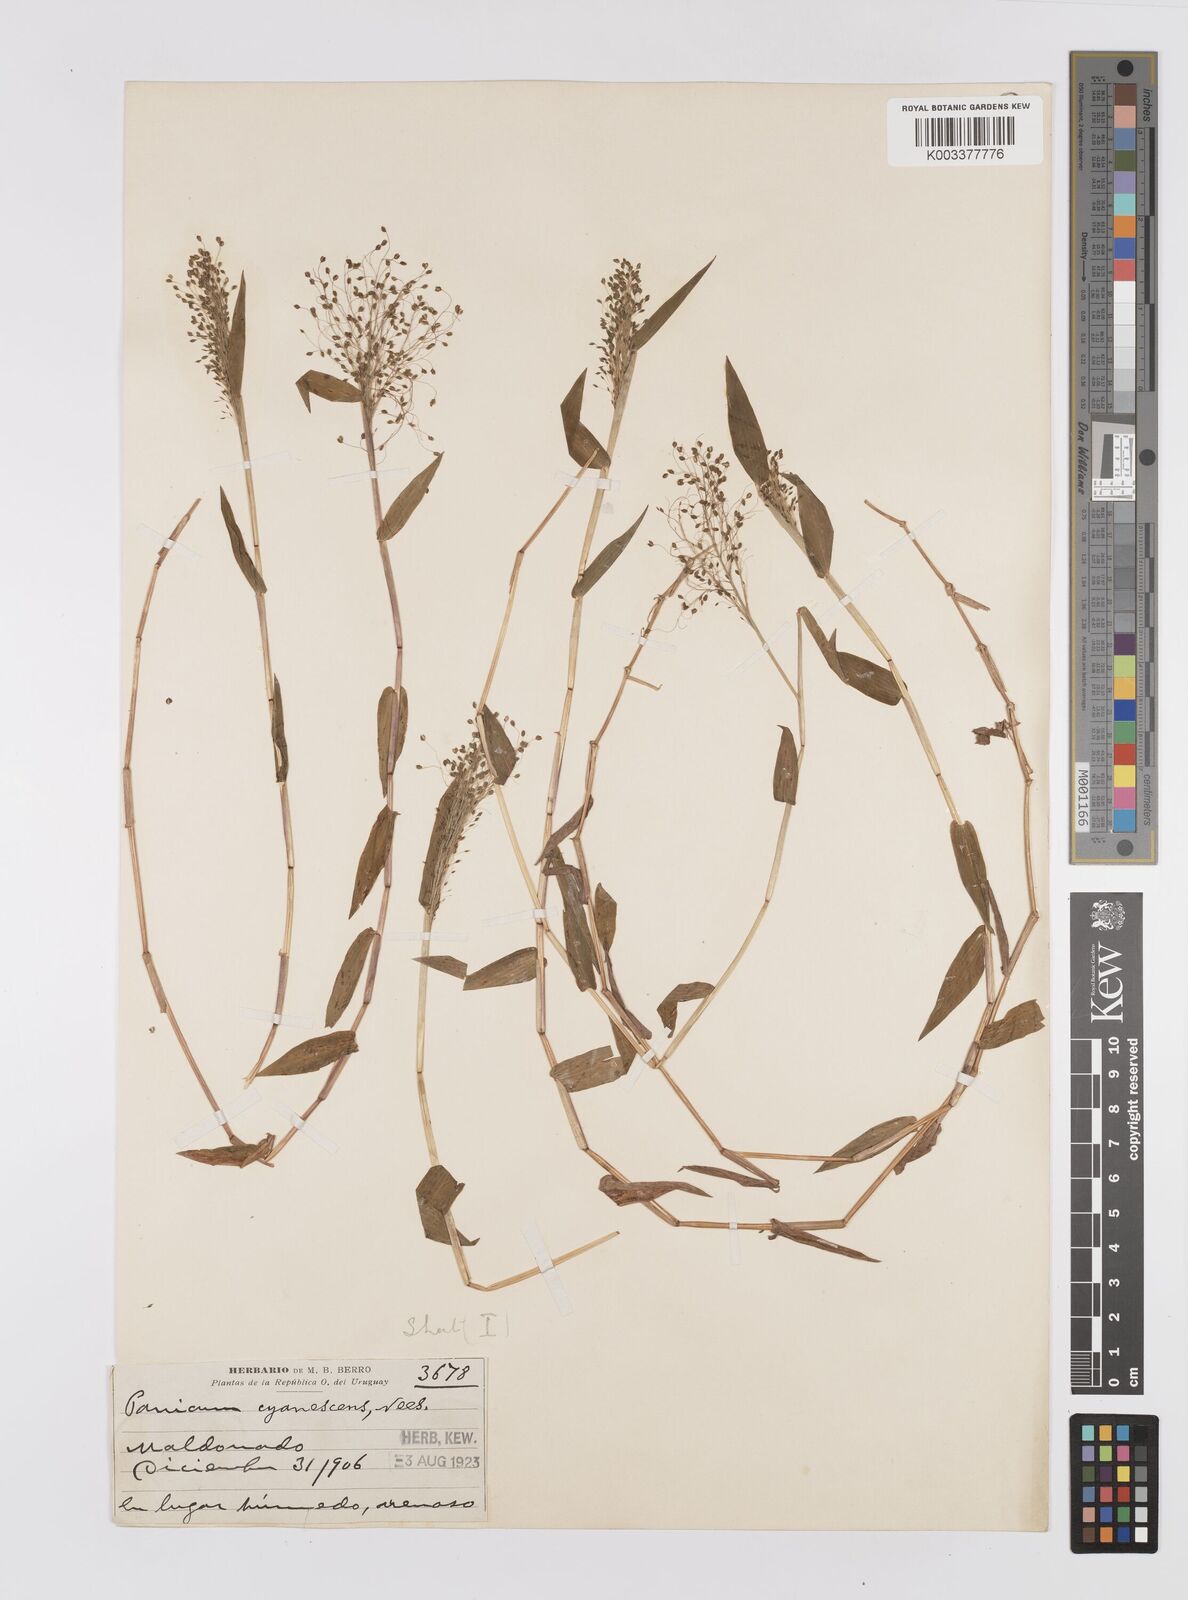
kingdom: Plantae
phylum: Tracheophyta
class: Liliopsida
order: Poales
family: Poaceae
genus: Trichanthecium
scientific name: Trichanthecium schwackeanum
